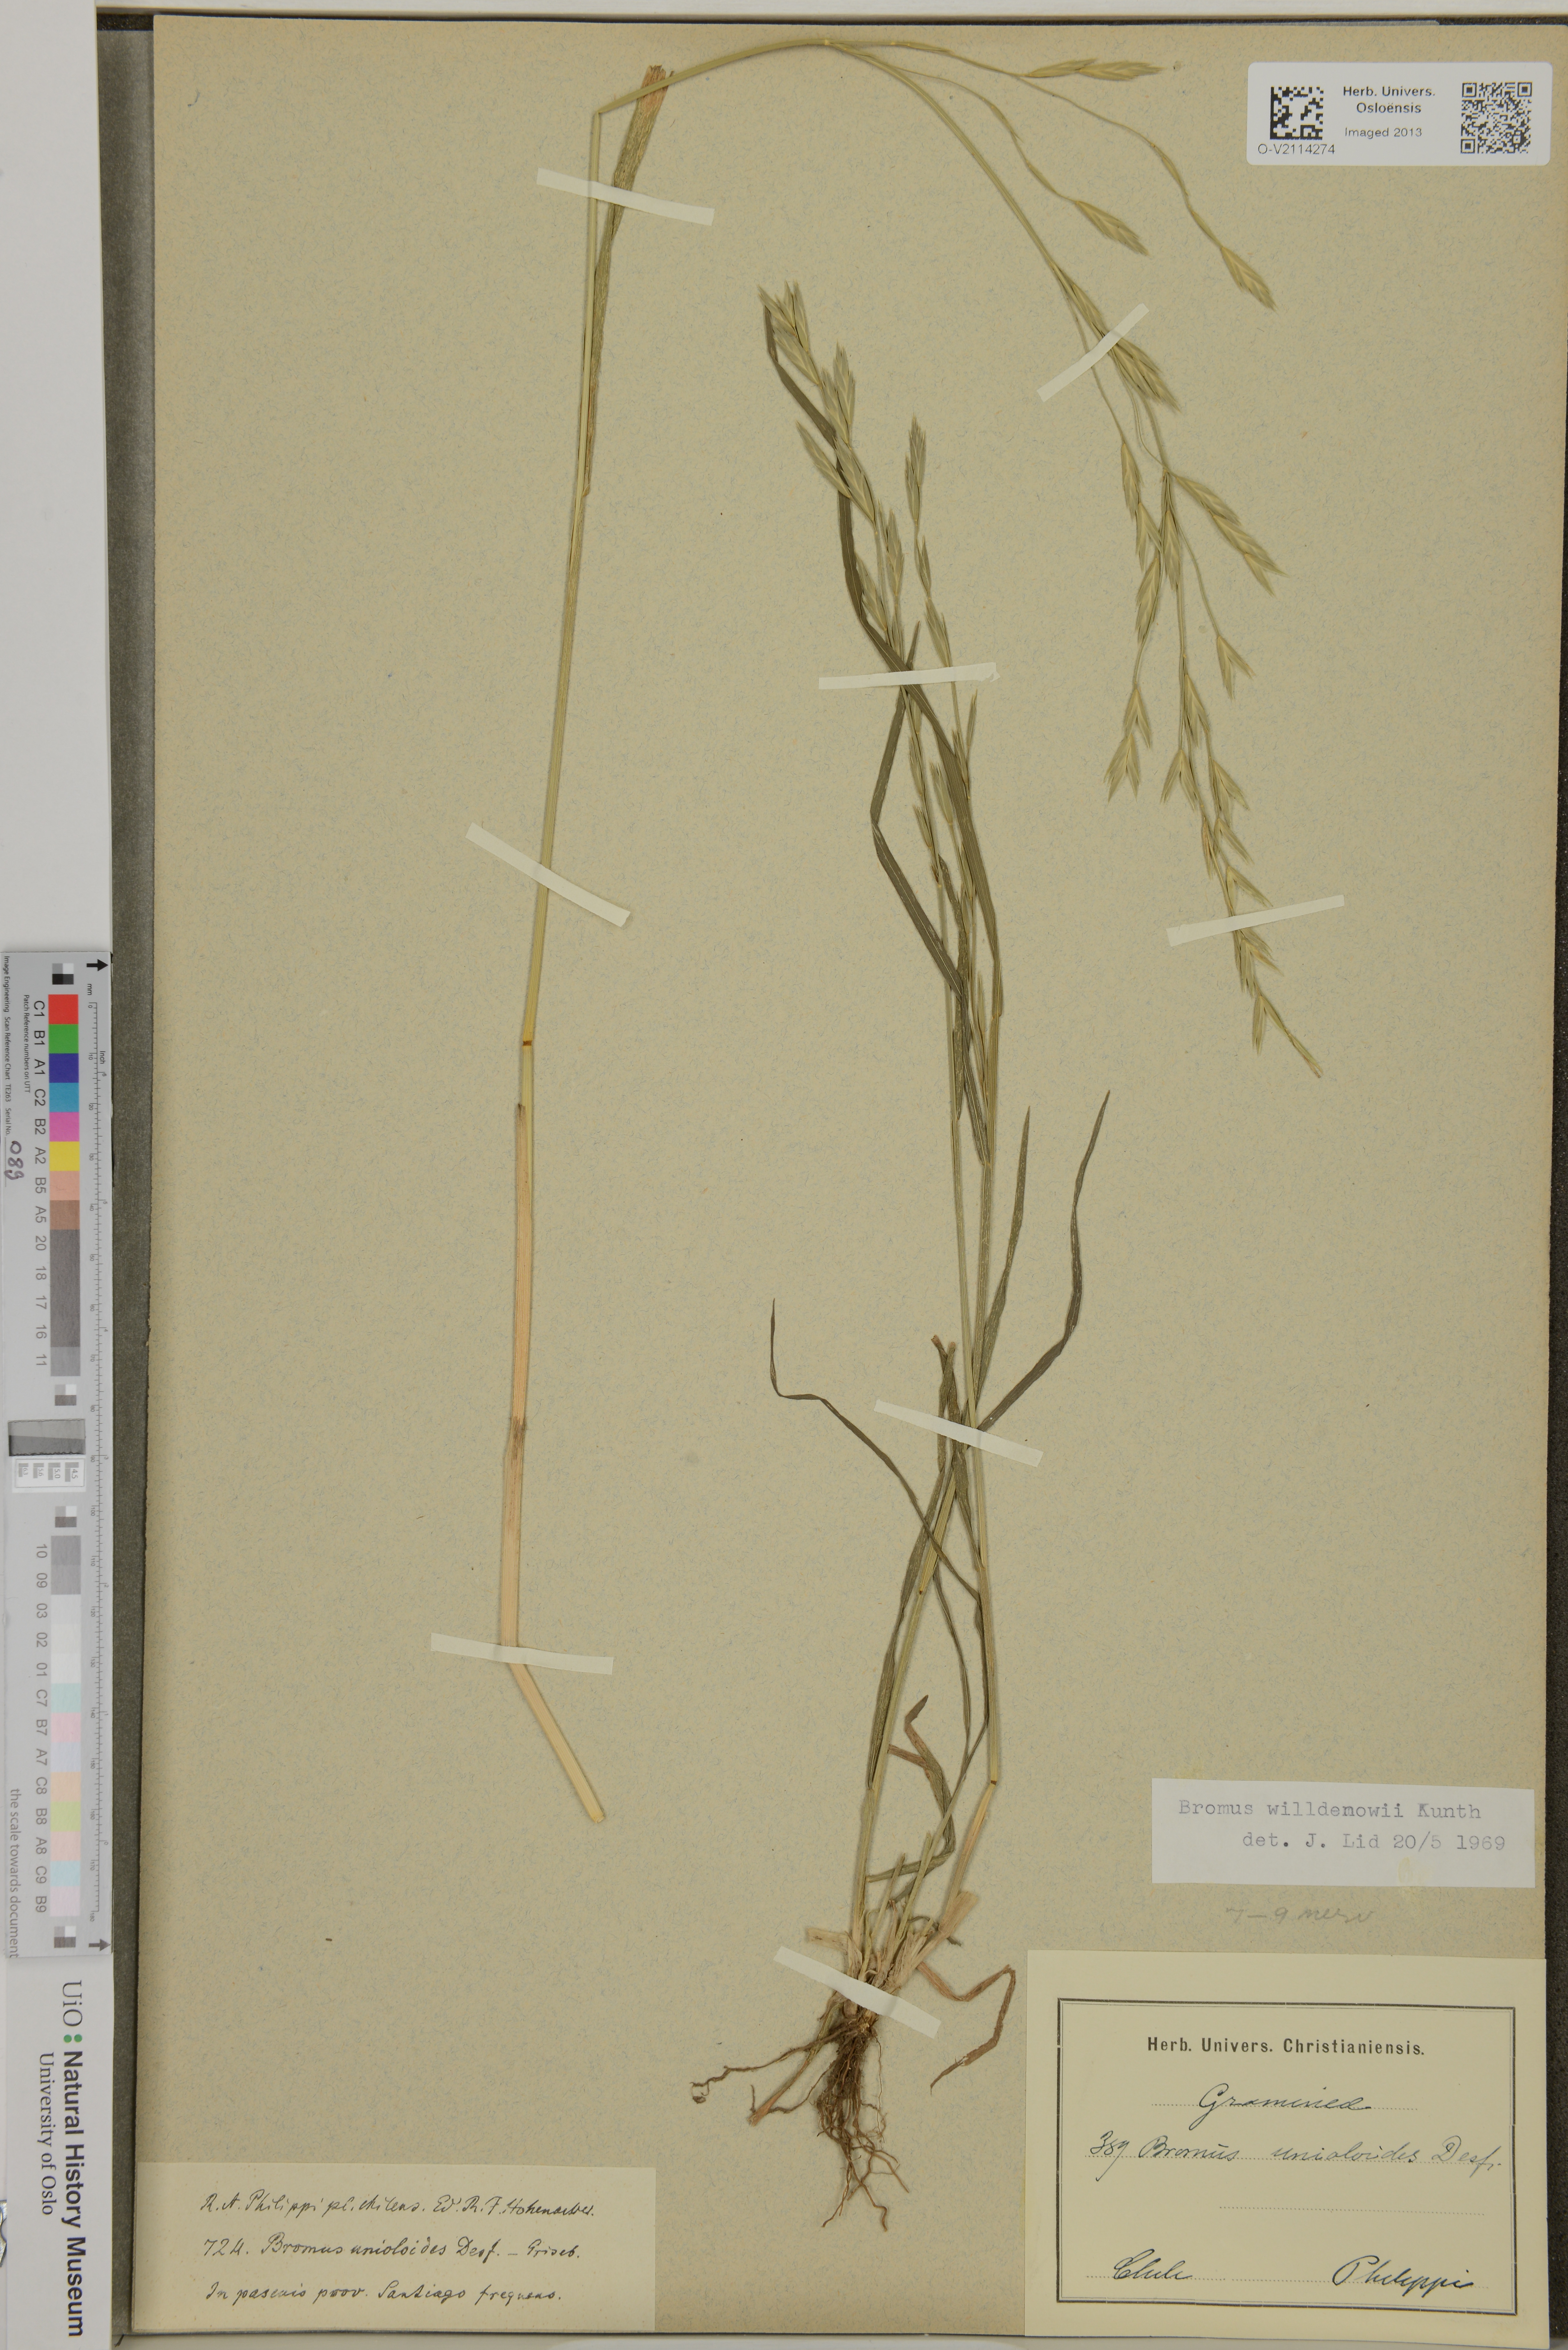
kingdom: Plantae
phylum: Tracheophyta
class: Liliopsida
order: Poales
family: Poaceae
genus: Bromus
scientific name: Bromus catharticus
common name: Rescuegrass
